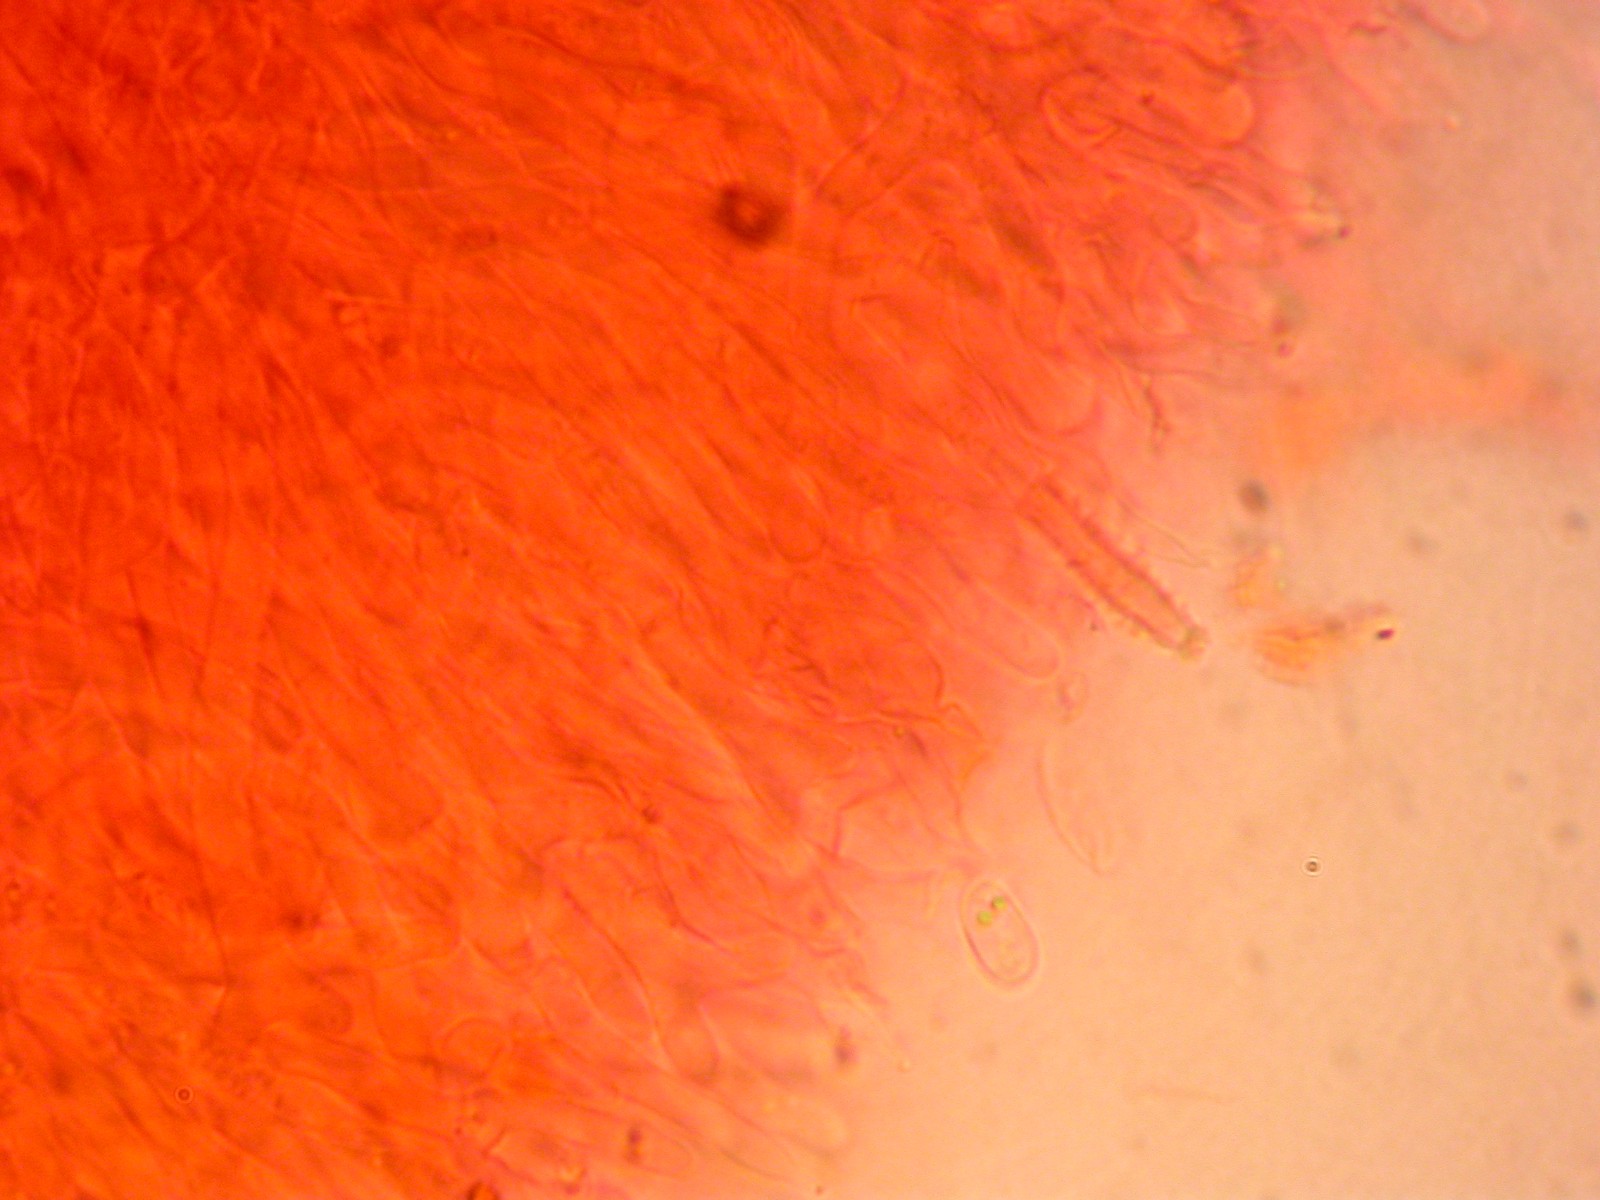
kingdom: Fungi
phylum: Basidiomycota
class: Dacrymycetes
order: Dacrymycetales
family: Dacrymycetaceae
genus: Ditiola
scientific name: Ditiola radicata
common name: rod-tåresvamp
